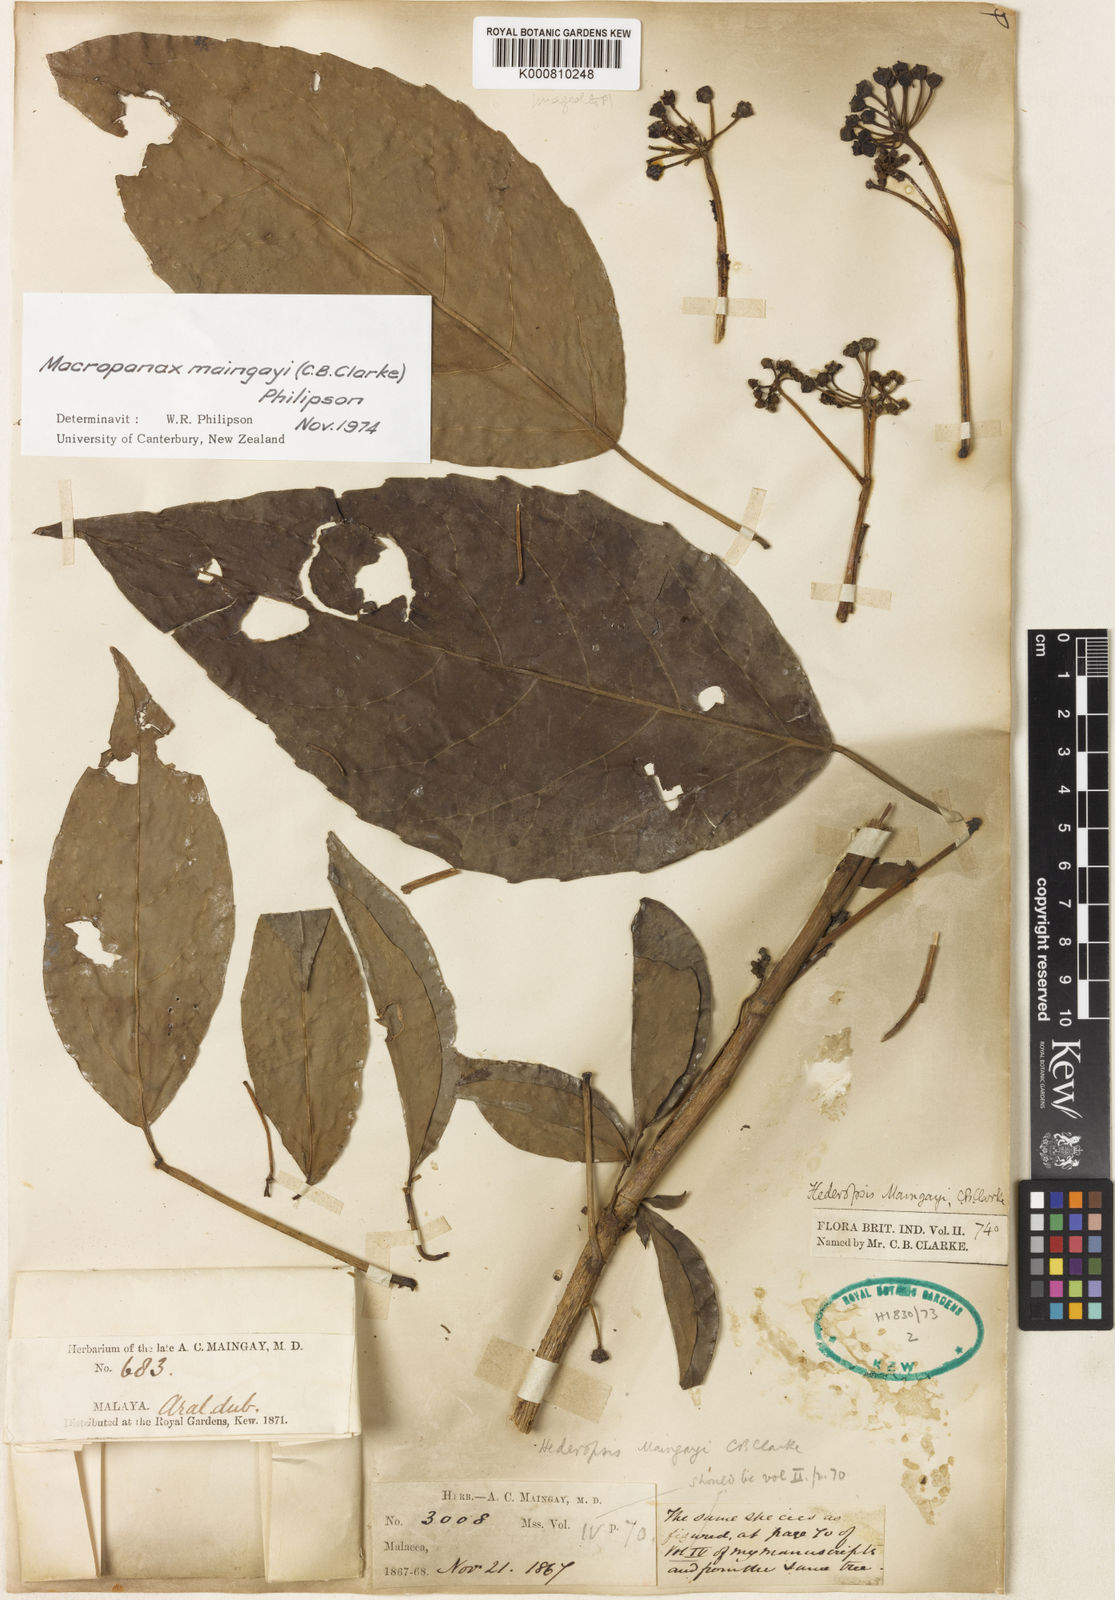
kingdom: Plantae
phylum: Tracheophyta
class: Magnoliopsida
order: Apiales
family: Araliaceae
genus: Macropanax
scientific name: Macropanax maingayi
